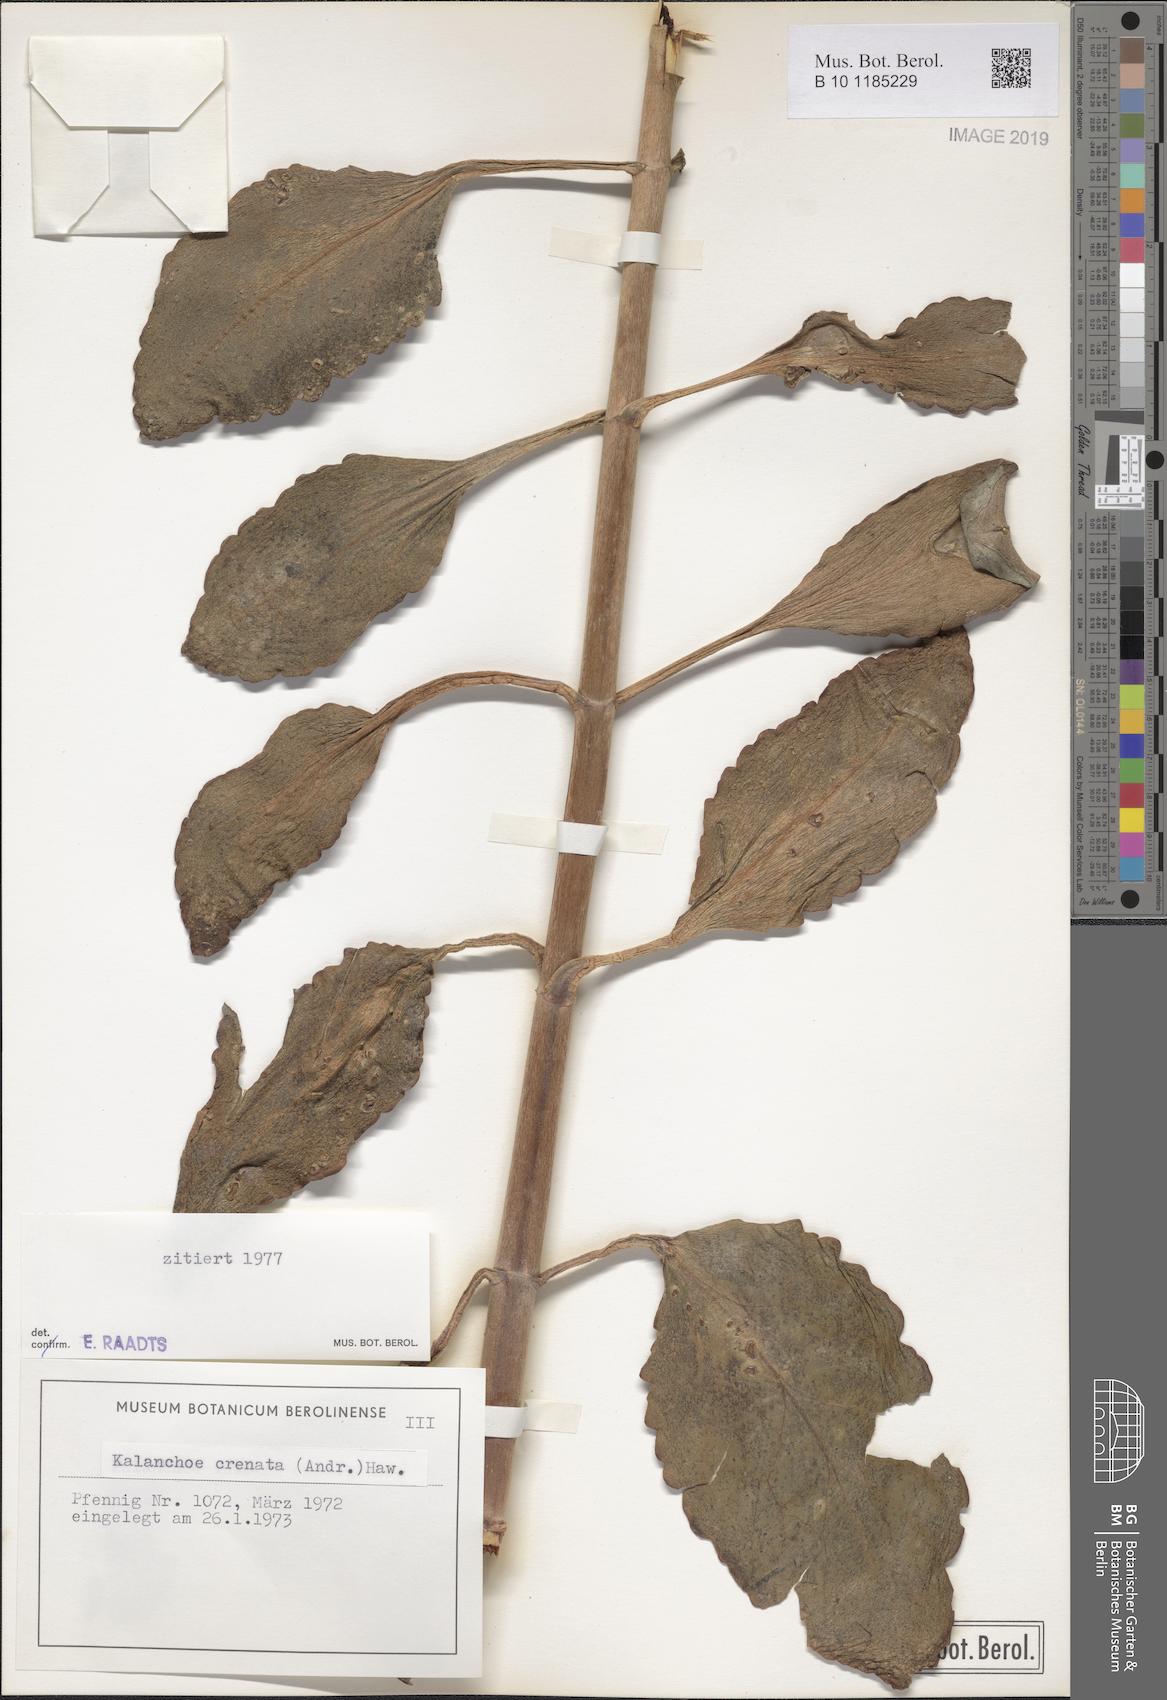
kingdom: Plantae
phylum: Tracheophyta
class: Magnoliopsida
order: Saxifragales
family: Crassulaceae
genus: Kalanchoe
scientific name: Kalanchoe crenata
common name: Neverdie
